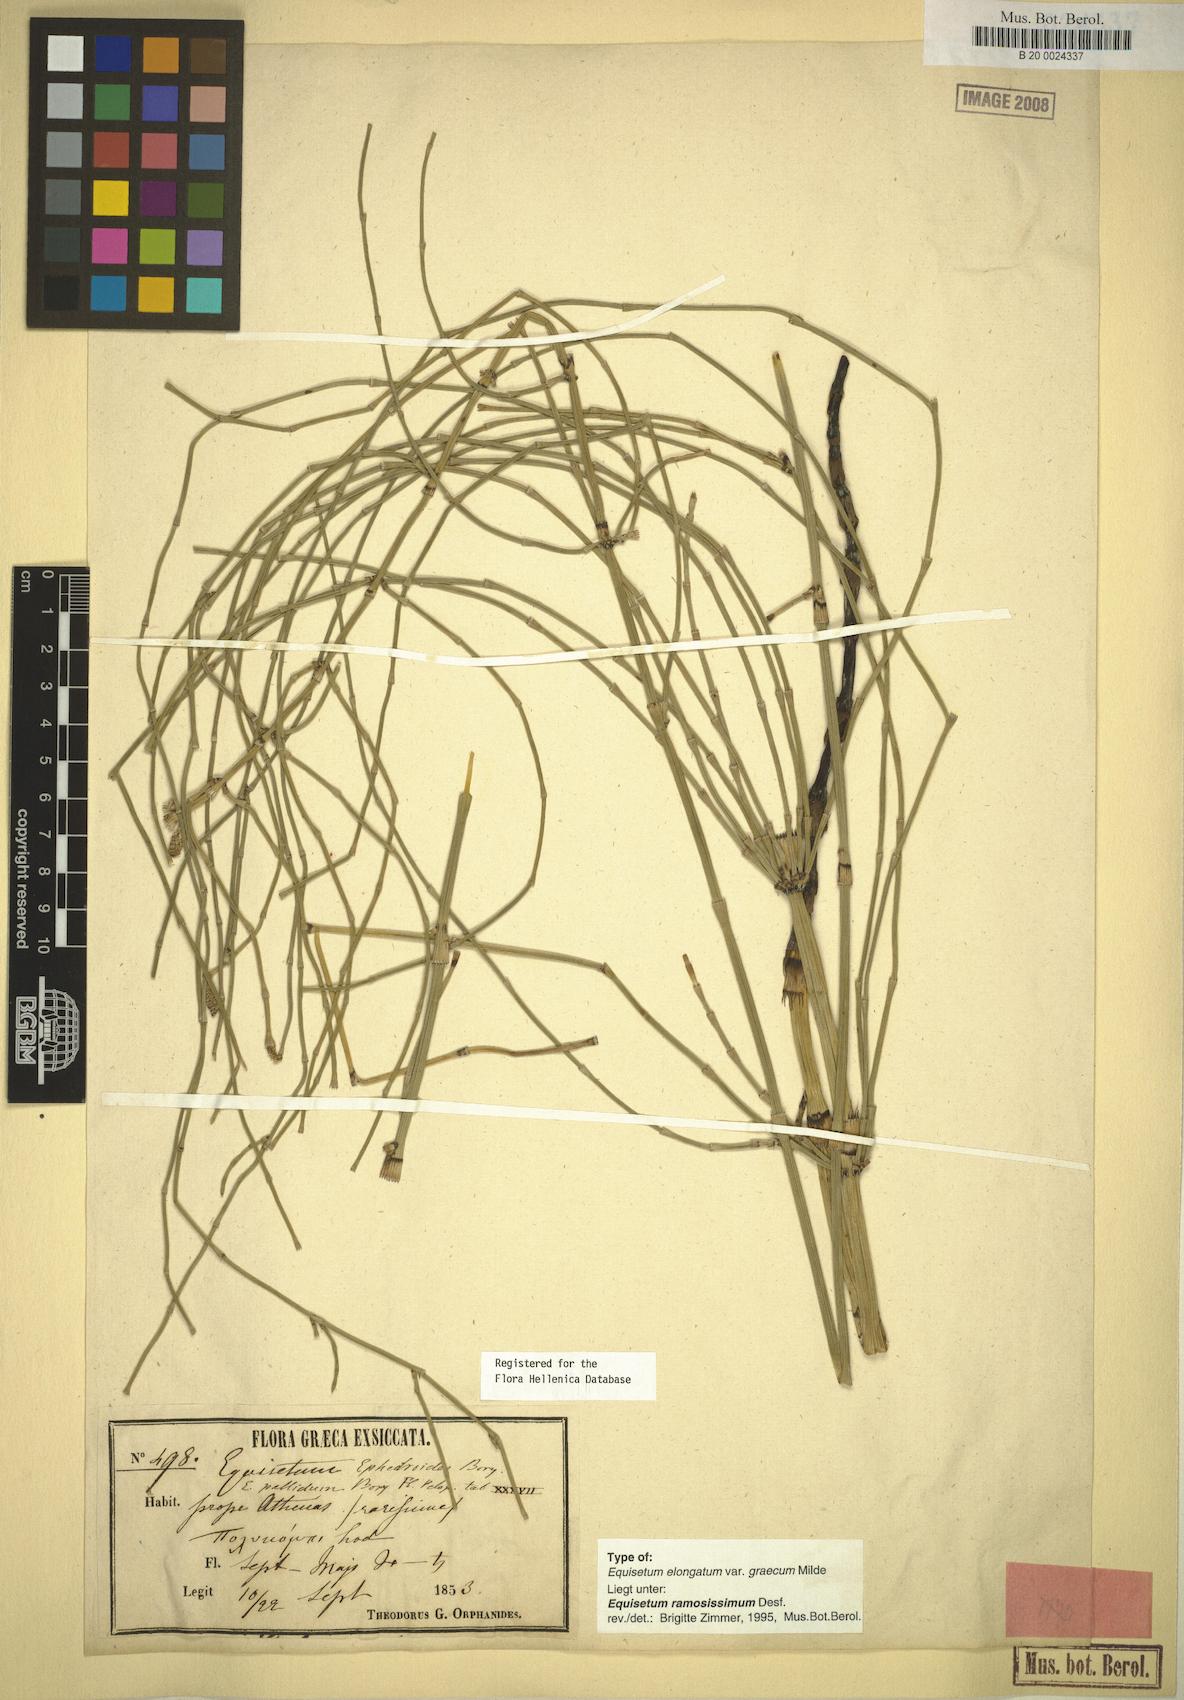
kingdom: Plantae
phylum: Tracheophyta
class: Polypodiopsida
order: Equisetales
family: Equisetaceae
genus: Equisetum
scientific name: Equisetum ramosissimum
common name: Branched horsetail
